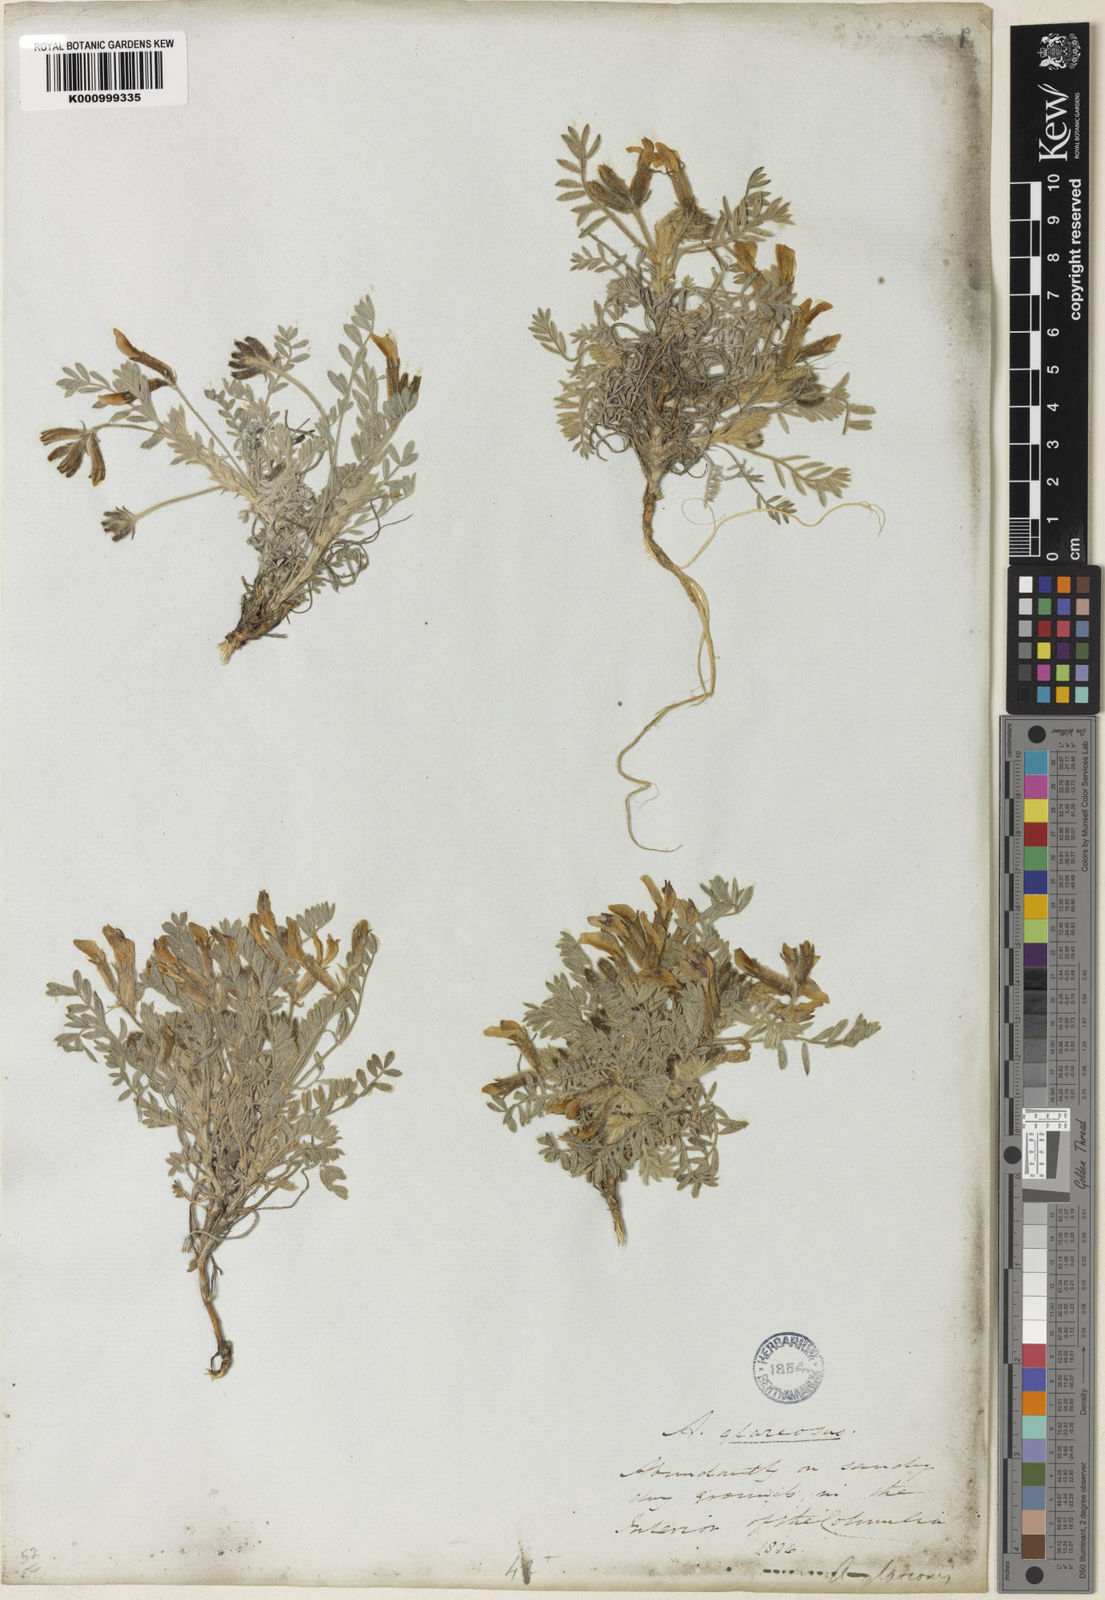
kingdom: Plantae
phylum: Tracheophyta
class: Magnoliopsida
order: Fabales
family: Fabaceae
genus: Astragalus
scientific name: Astragalus purshii
